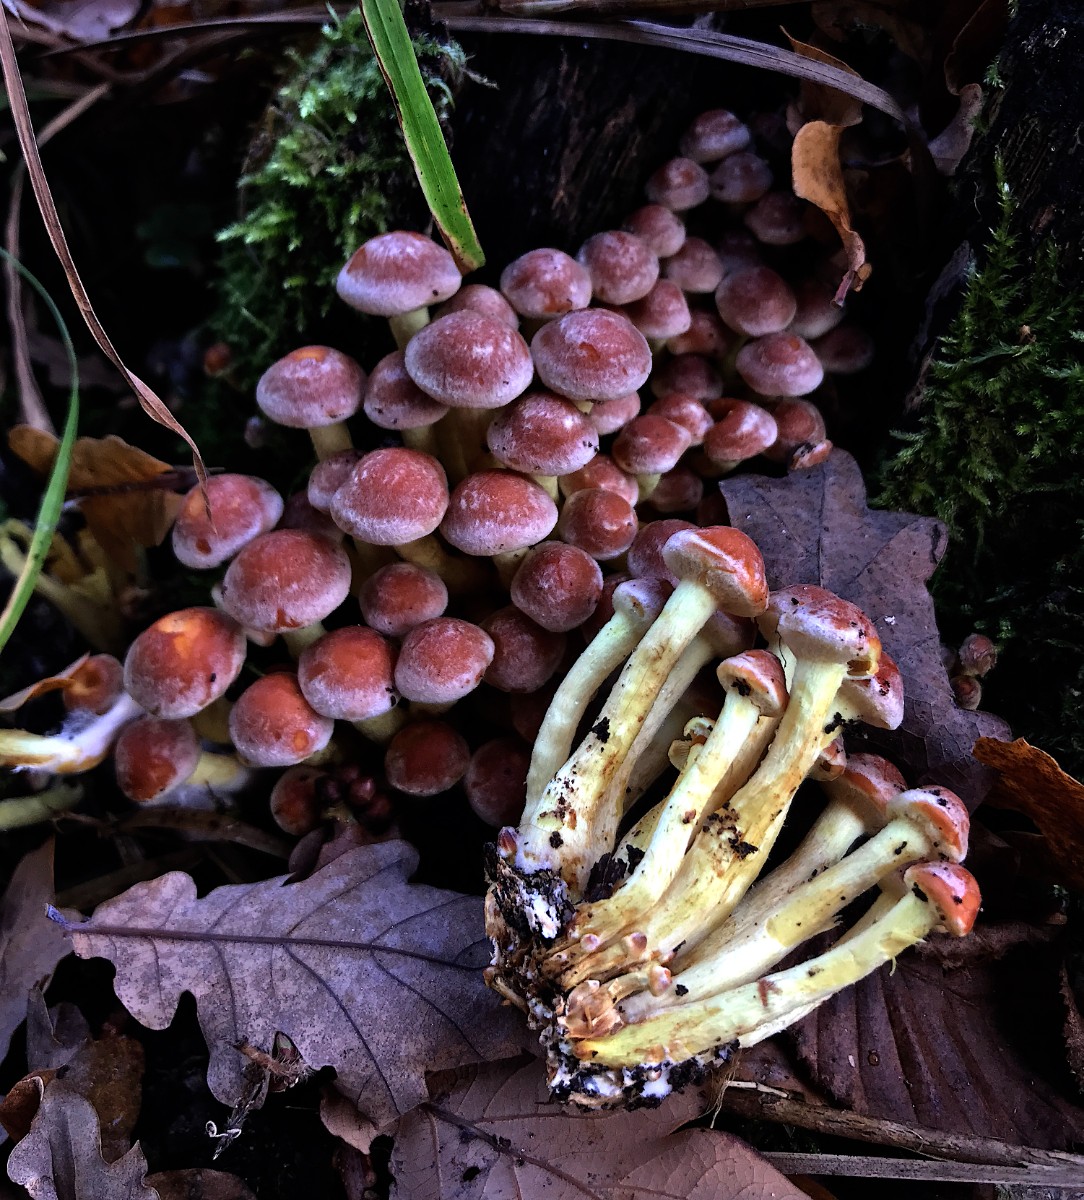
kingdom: Fungi
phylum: Basidiomycota
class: Agaricomycetes
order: Agaricales
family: Strophariaceae
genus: Hypholoma
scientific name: Hypholoma fasciculare
